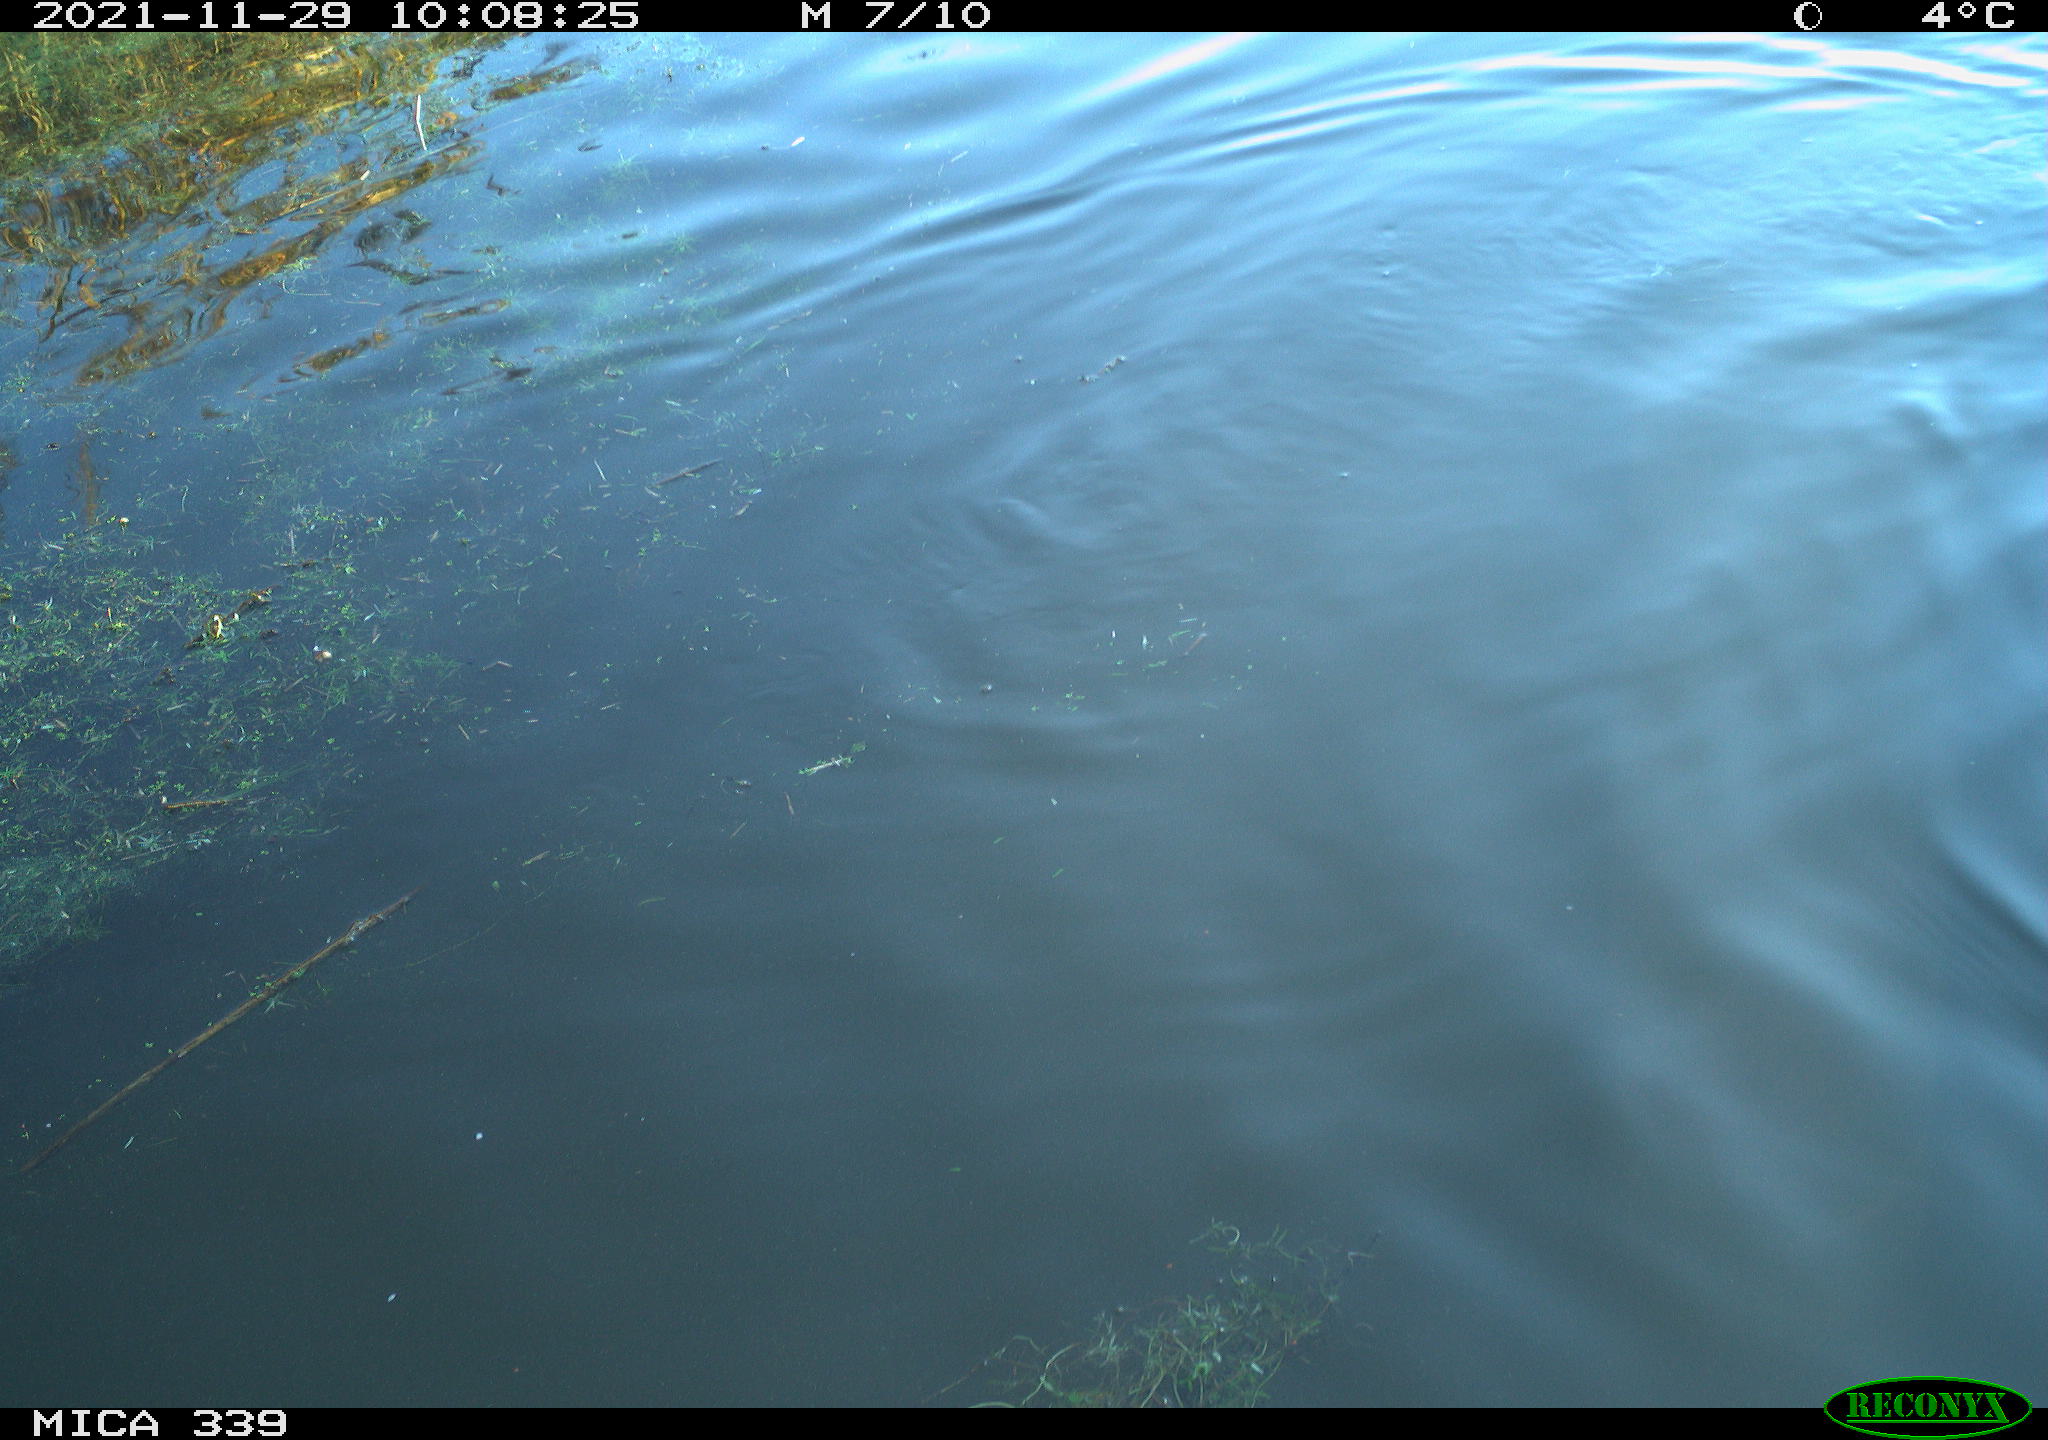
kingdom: Animalia
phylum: Chordata
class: Aves
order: Anseriformes
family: Anatidae
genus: Anas
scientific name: Anas platyrhynchos
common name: Mallard
